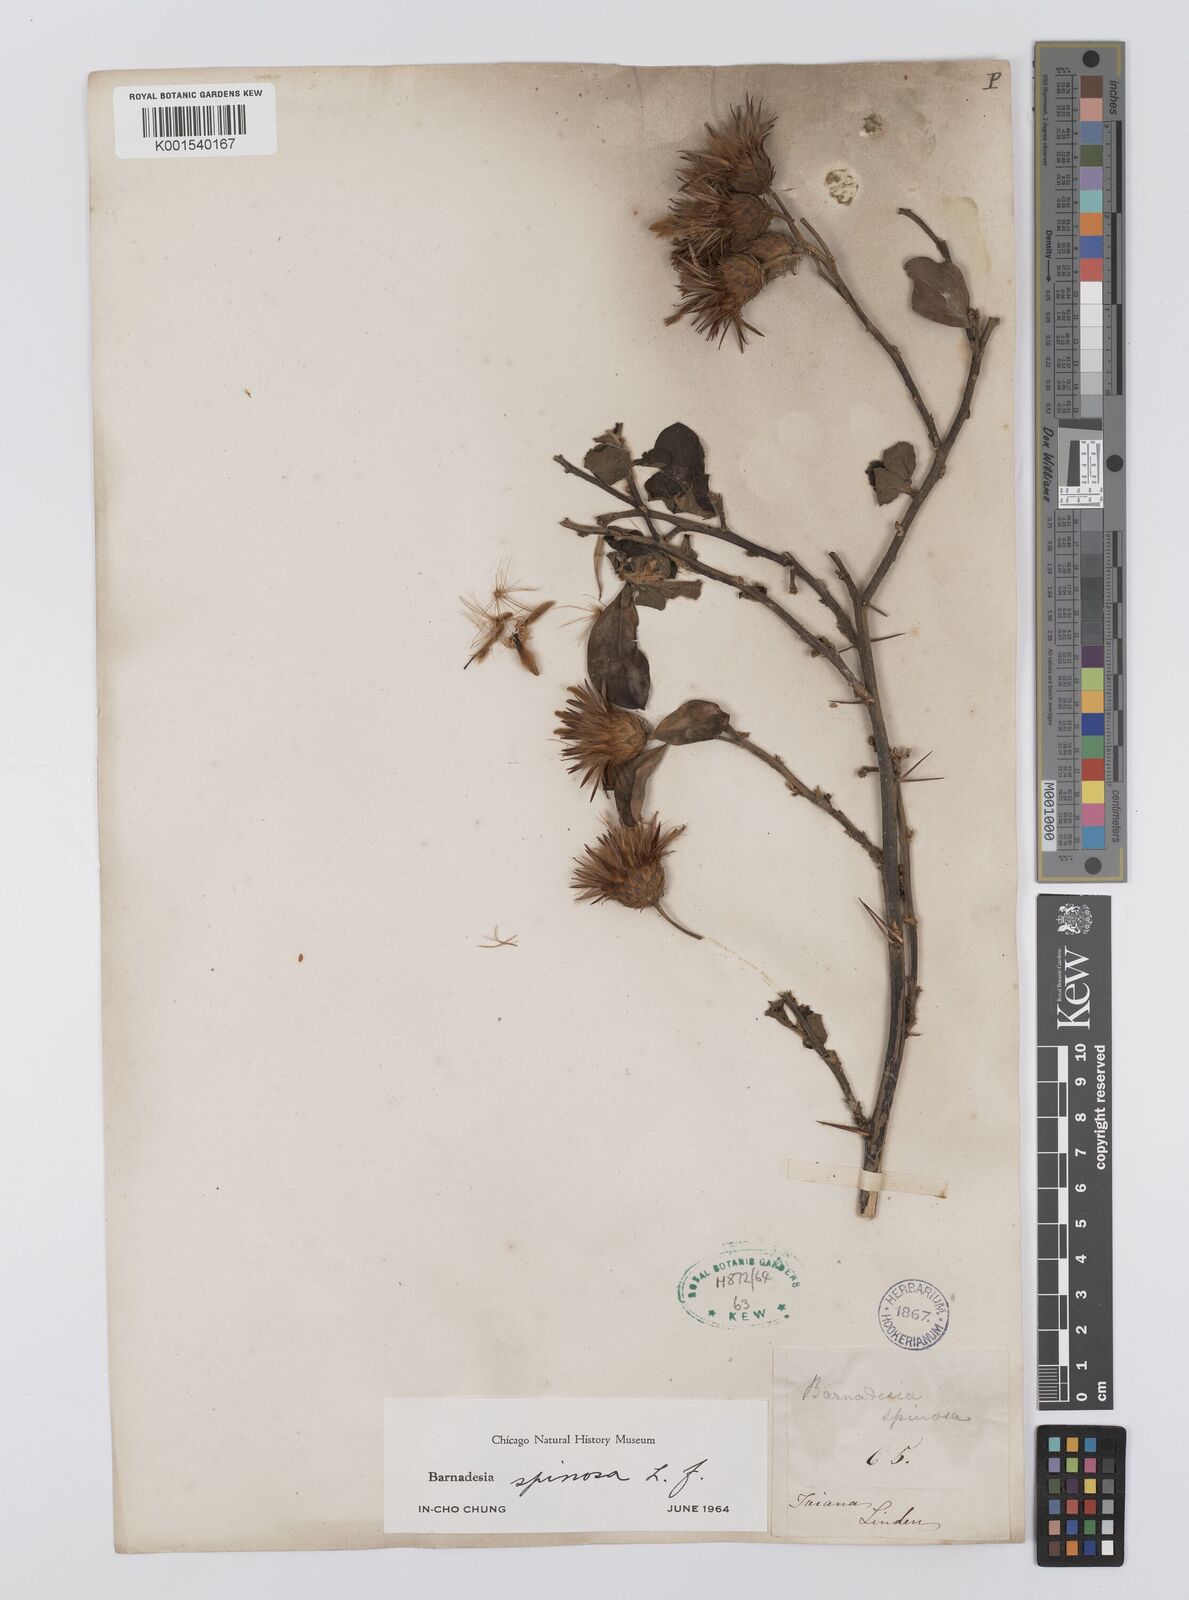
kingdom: Plantae
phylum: Tracheophyta
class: Magnoliopsida
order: Asterales
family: Asteraceae
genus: Barnadesia
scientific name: Barnadesia spinosa
